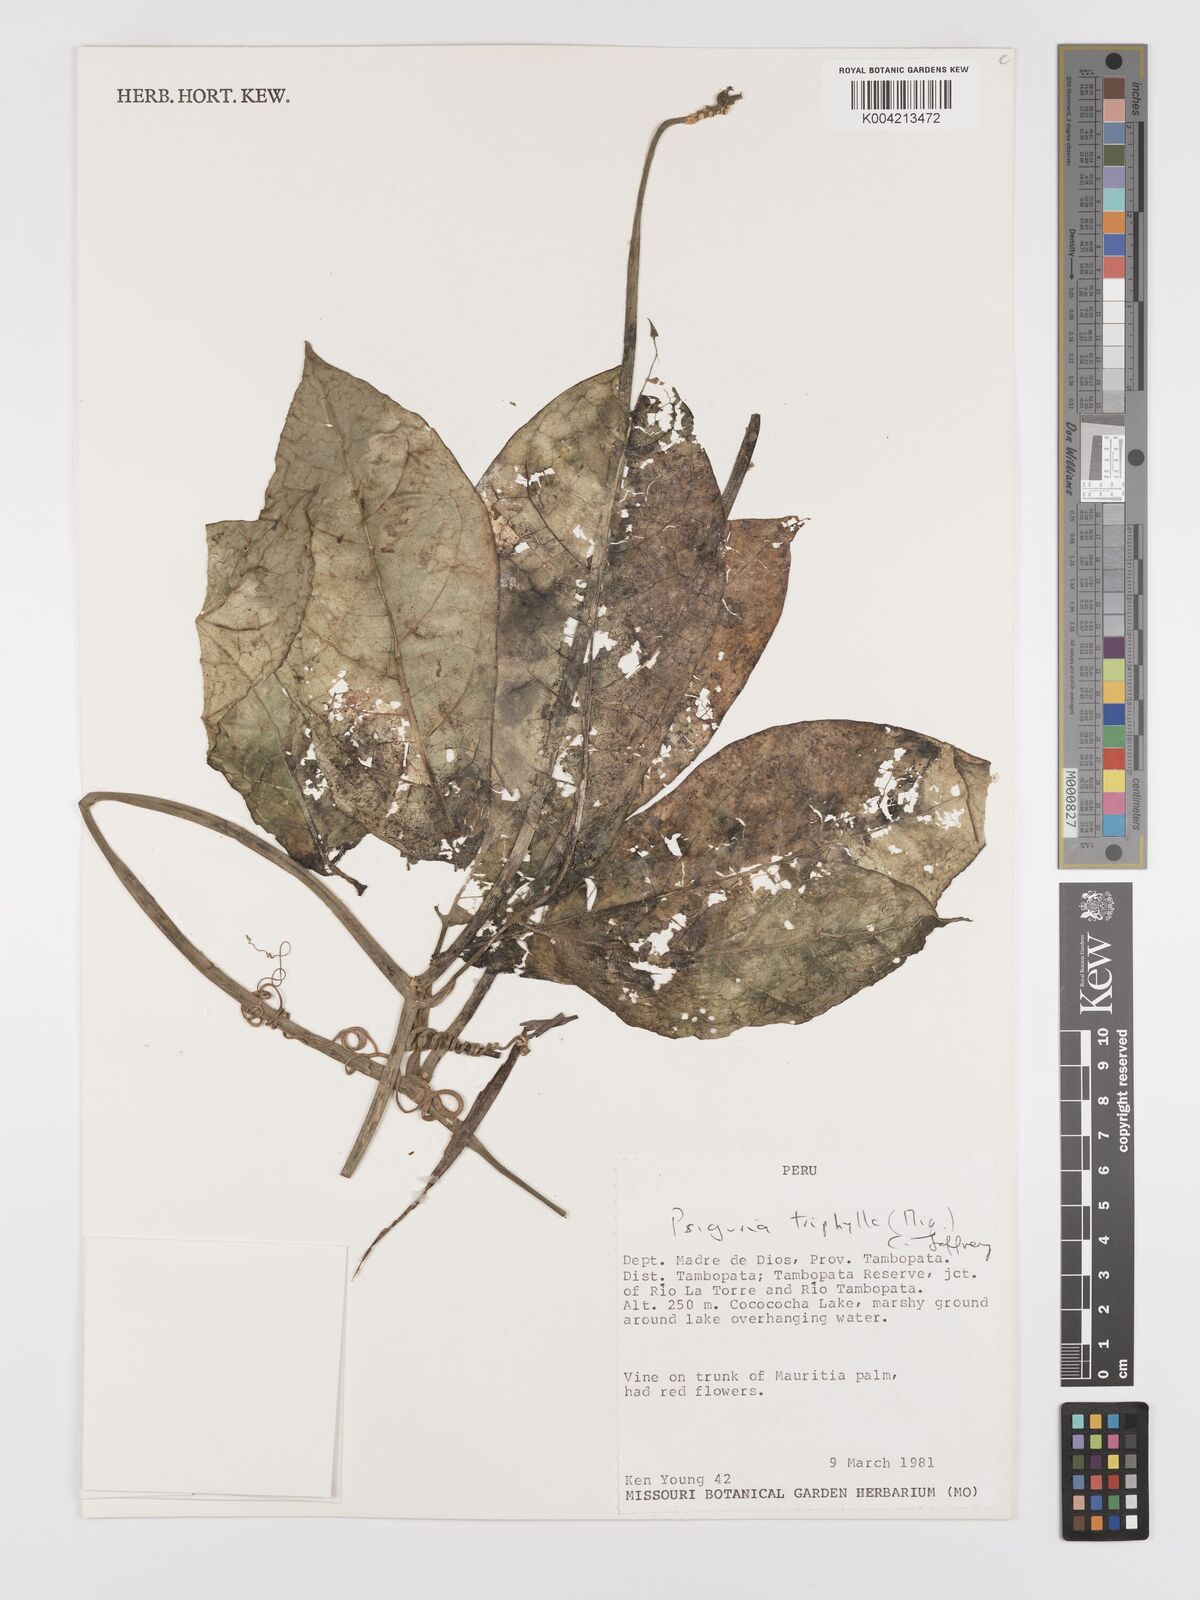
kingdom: Plantae
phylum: Tracheophyta
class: Magnoliopsida
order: Cucurbitales
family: Cucurbitaceae
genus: Psiguria
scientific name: Psiguria triphylla
